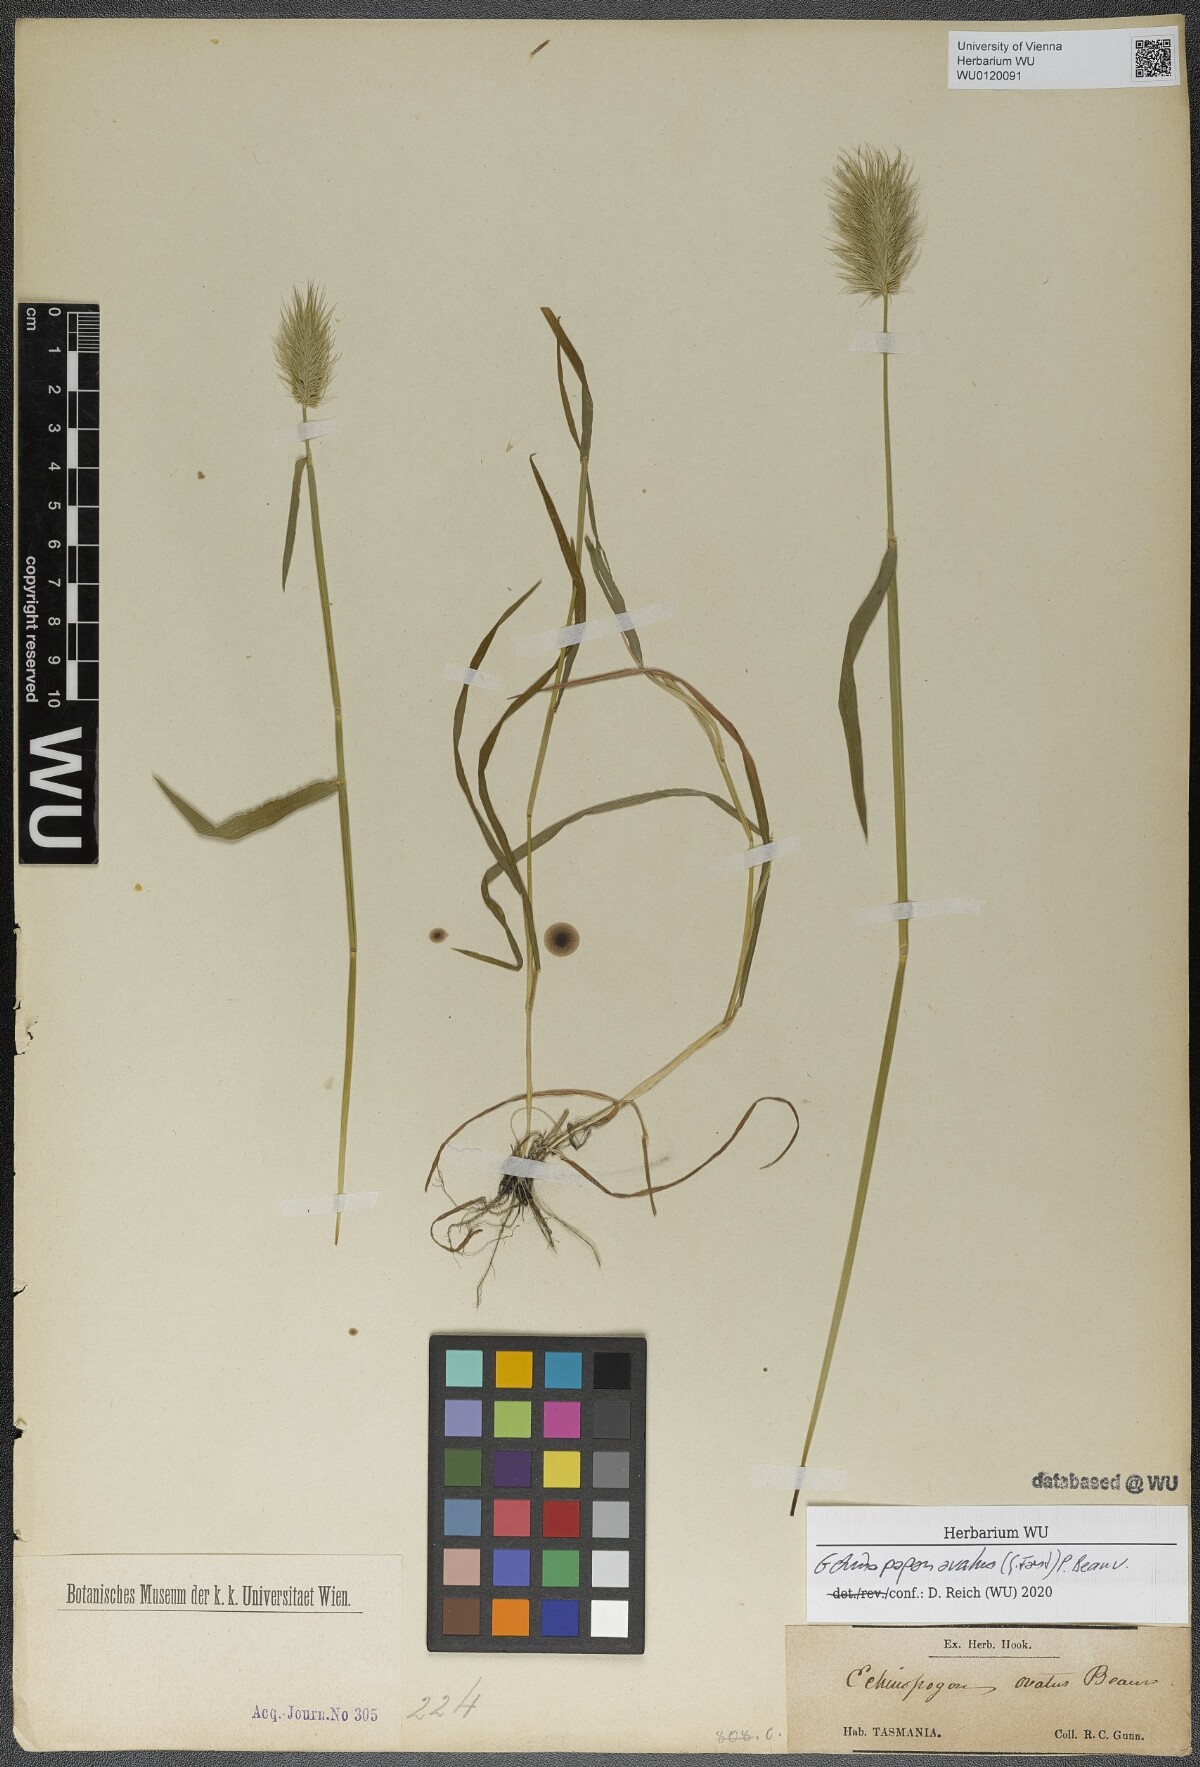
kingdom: Plantae
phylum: Tracheophyta
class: Liliopsida
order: Poales
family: Poaceae
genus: Echinopogon
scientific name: Echinopogon ovatus
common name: Hedgehog-grass
